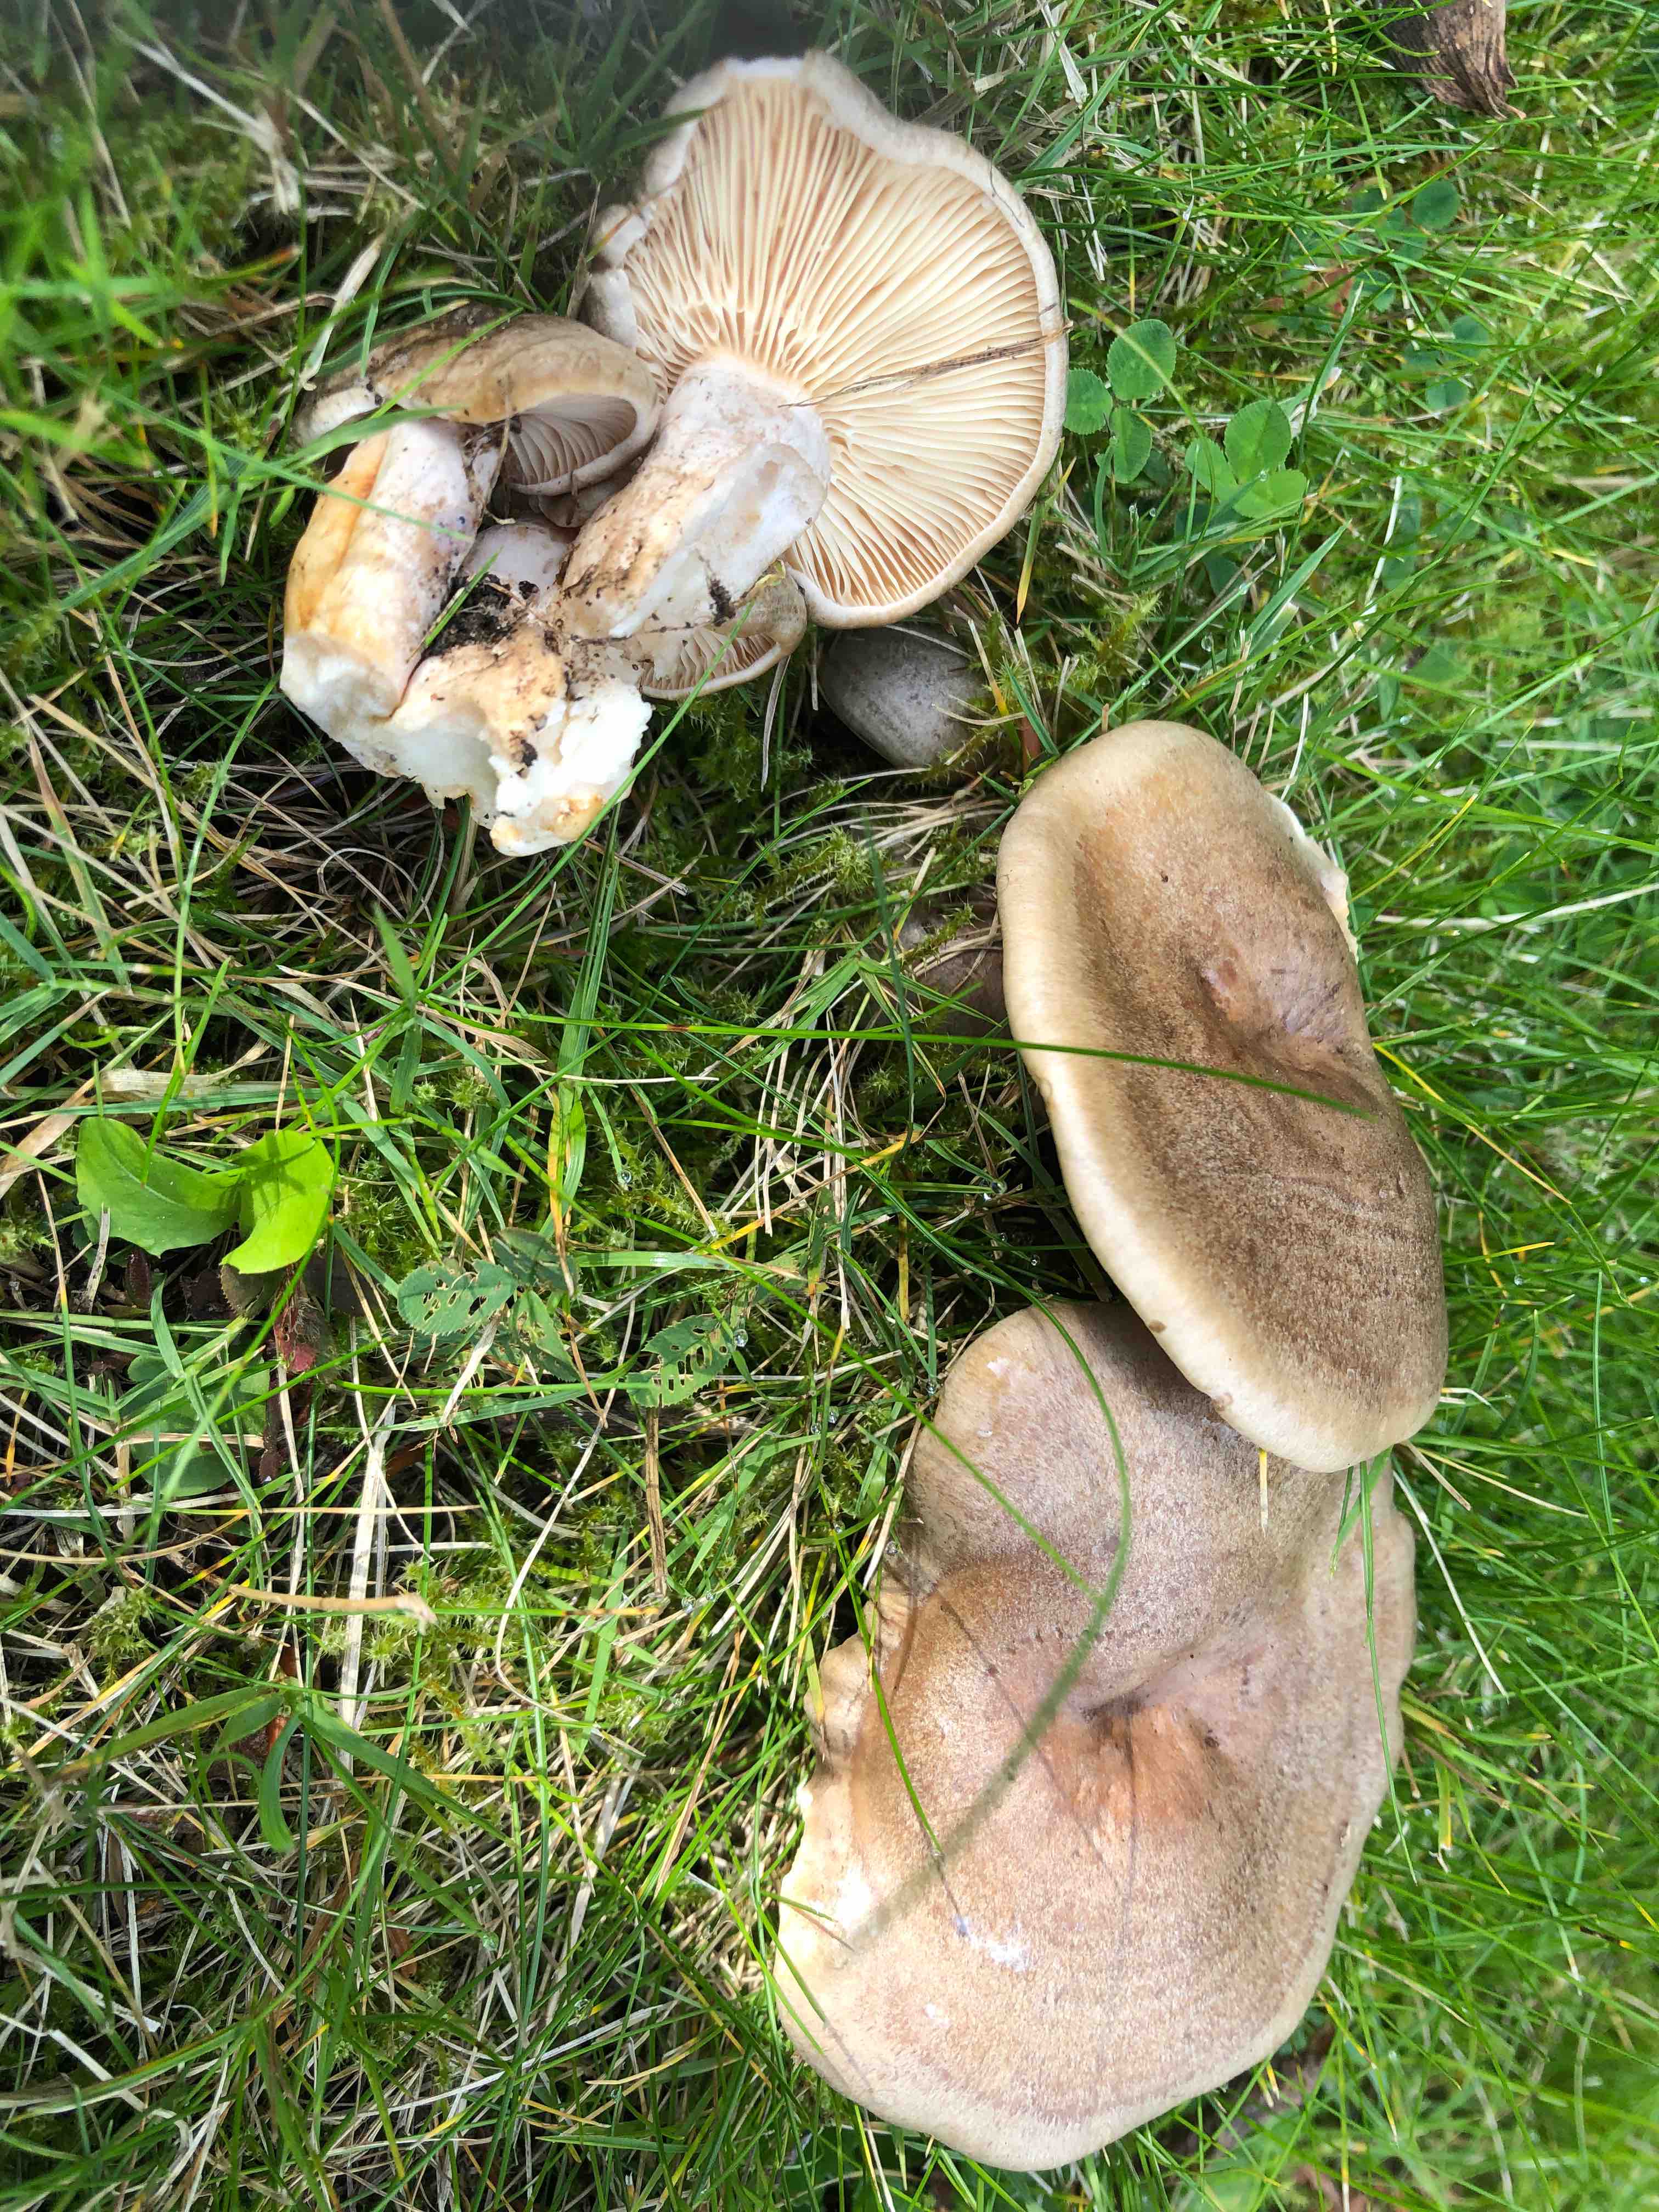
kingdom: Fungi
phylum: Basidiomycota
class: Agaricomycetes
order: Russulales
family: Russulaceae
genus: Lactarius
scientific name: Lactarius pyrogalus
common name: hassel-mælkehat
